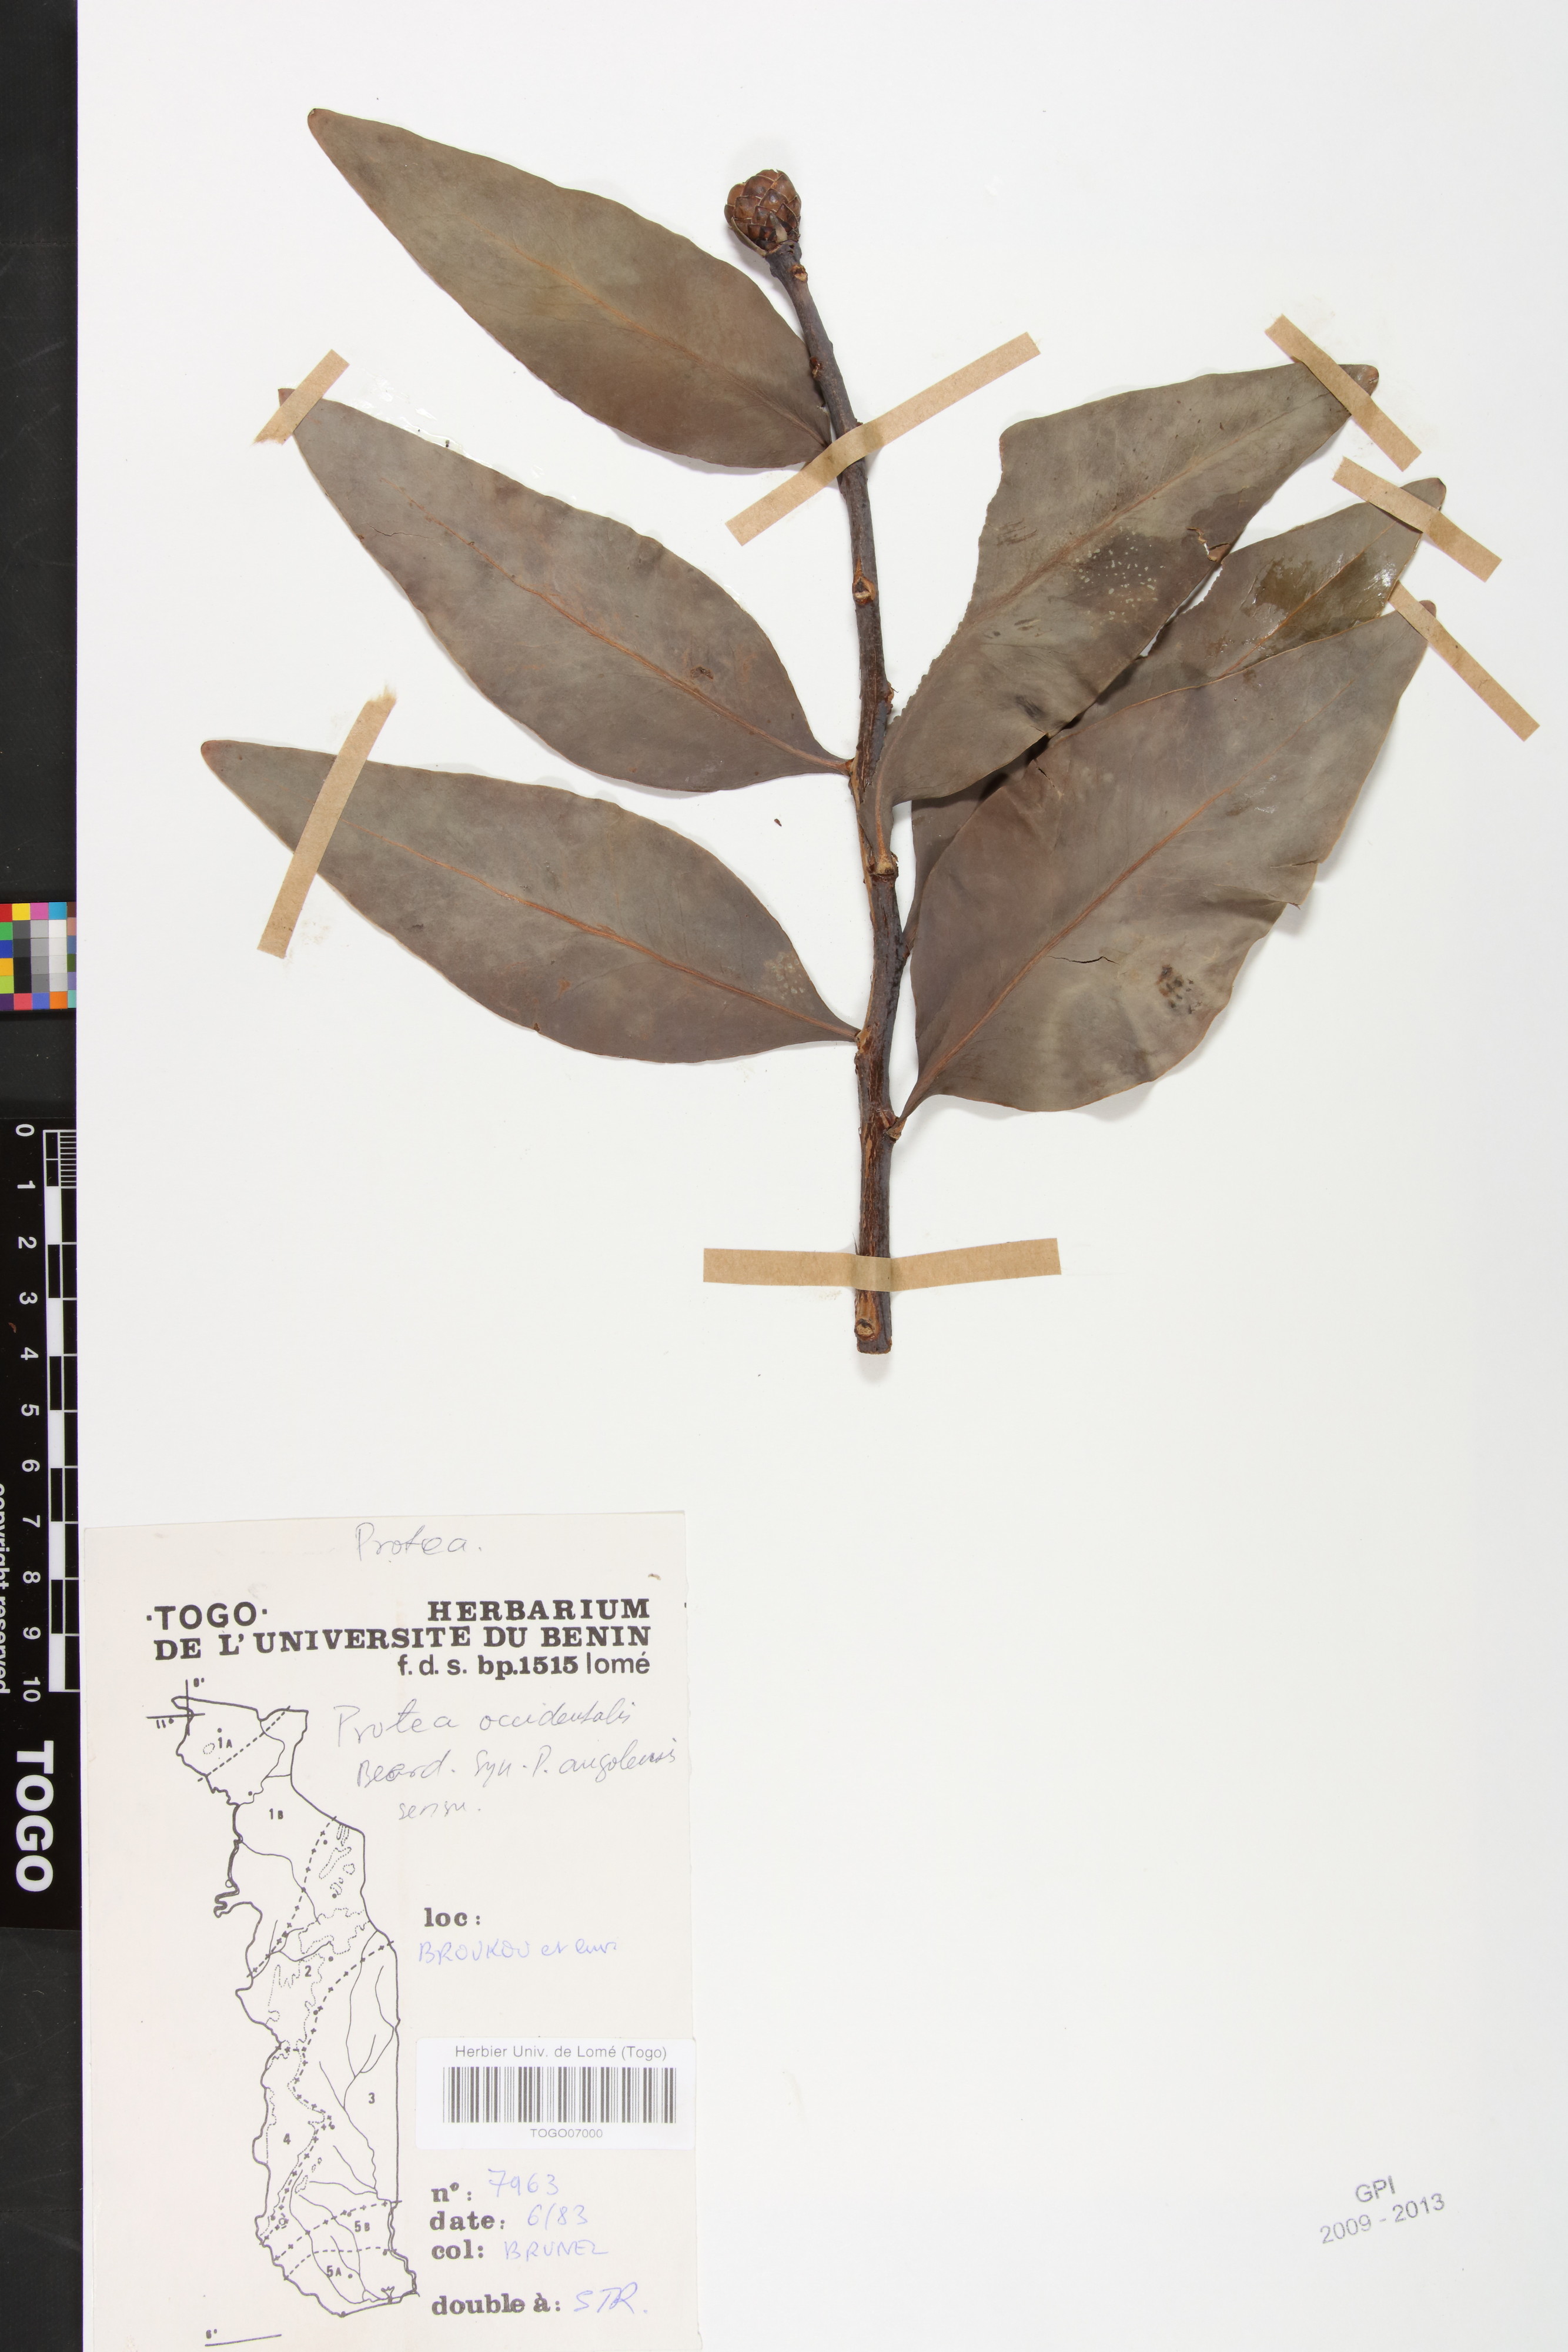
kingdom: Plantae
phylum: Tracheophyta
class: Magnoliopsida
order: Proteales
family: Proteaceae
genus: Protea
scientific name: Protea madiensis
